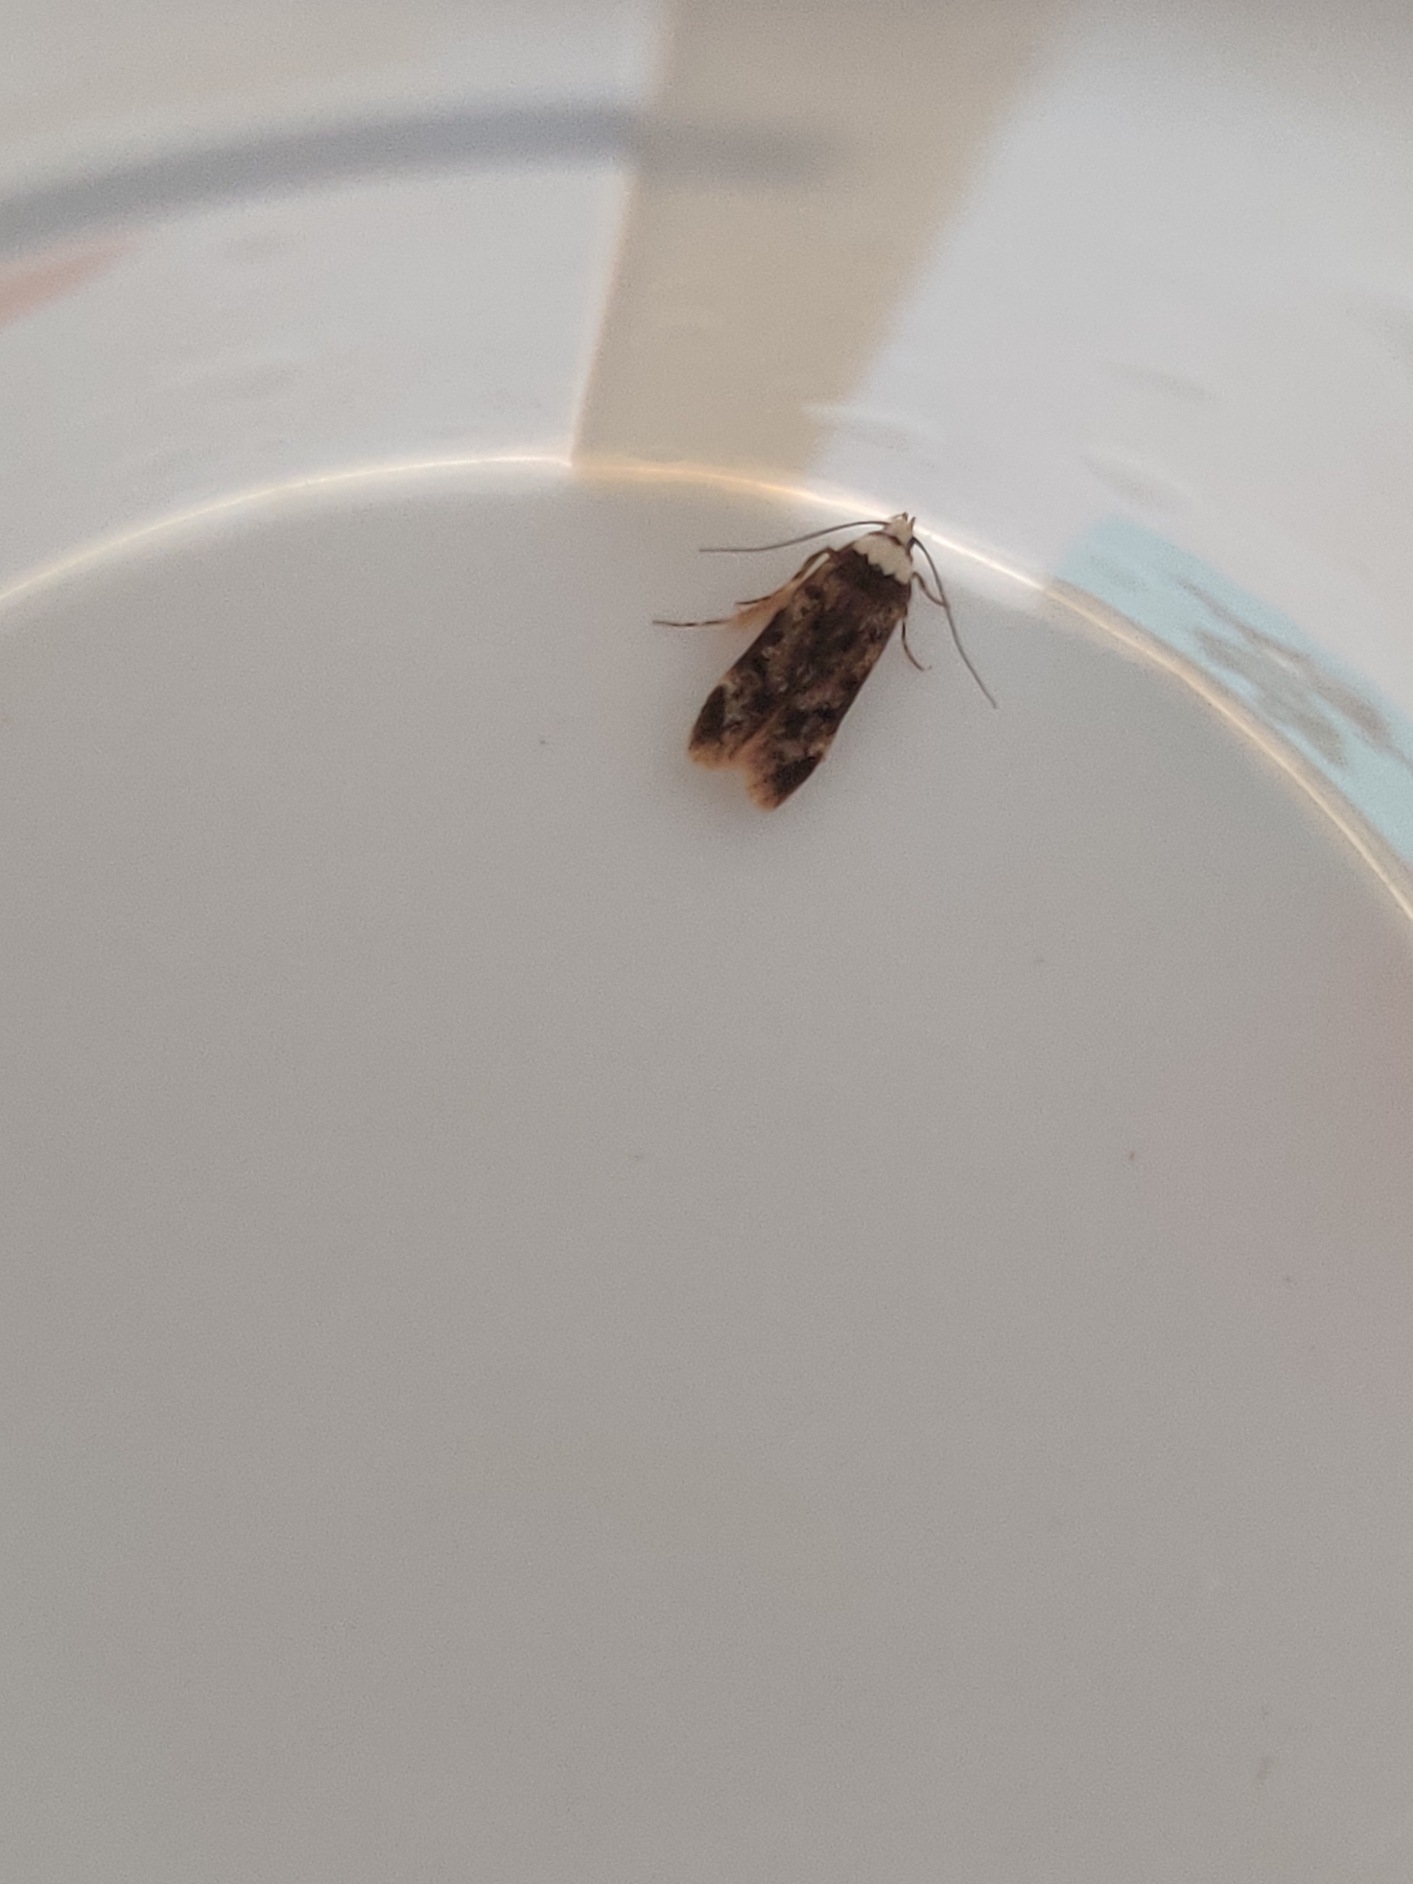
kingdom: Animalia
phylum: Arthropoda
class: Insecta
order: Lepidoptera
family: Oecophoridae
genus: Endrosis
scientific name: Endrosis sarcitrella
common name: Klistermøl
